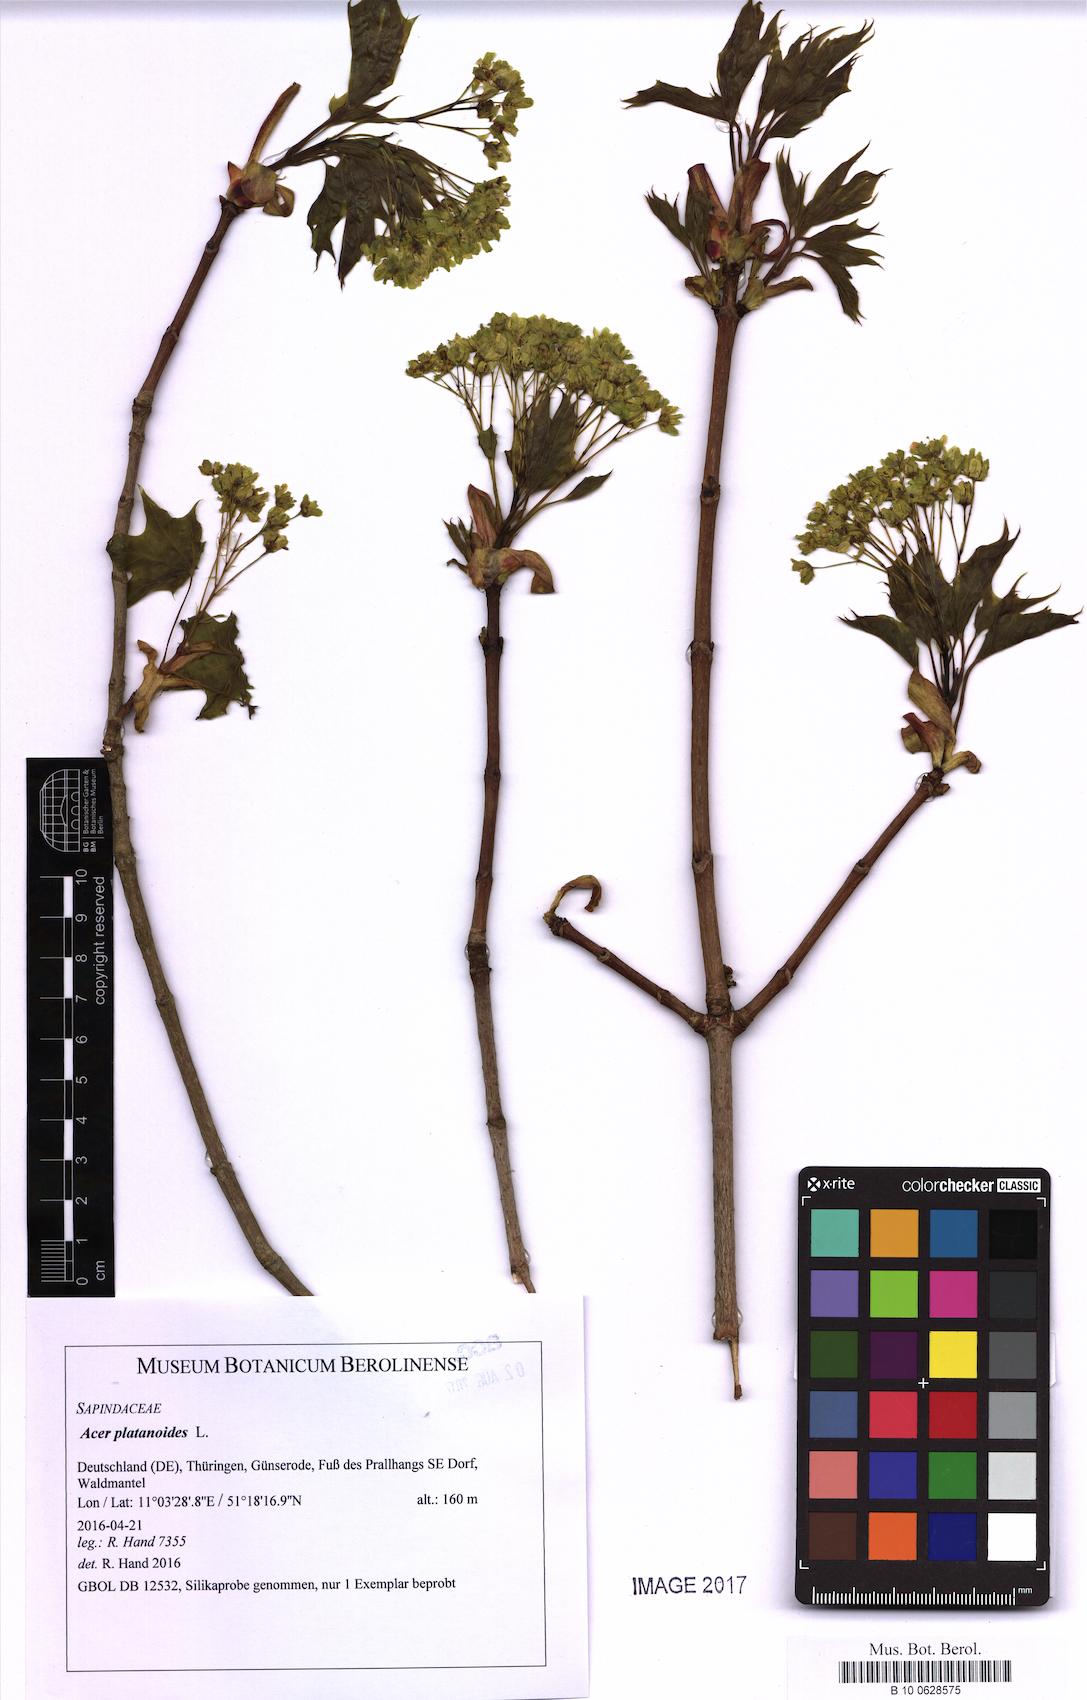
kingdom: Plantae
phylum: Tracheophyta
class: Magnoliopsida
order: Sapindales
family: Sapindaceae
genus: Acer
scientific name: Acer platanoides
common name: Norway maple
